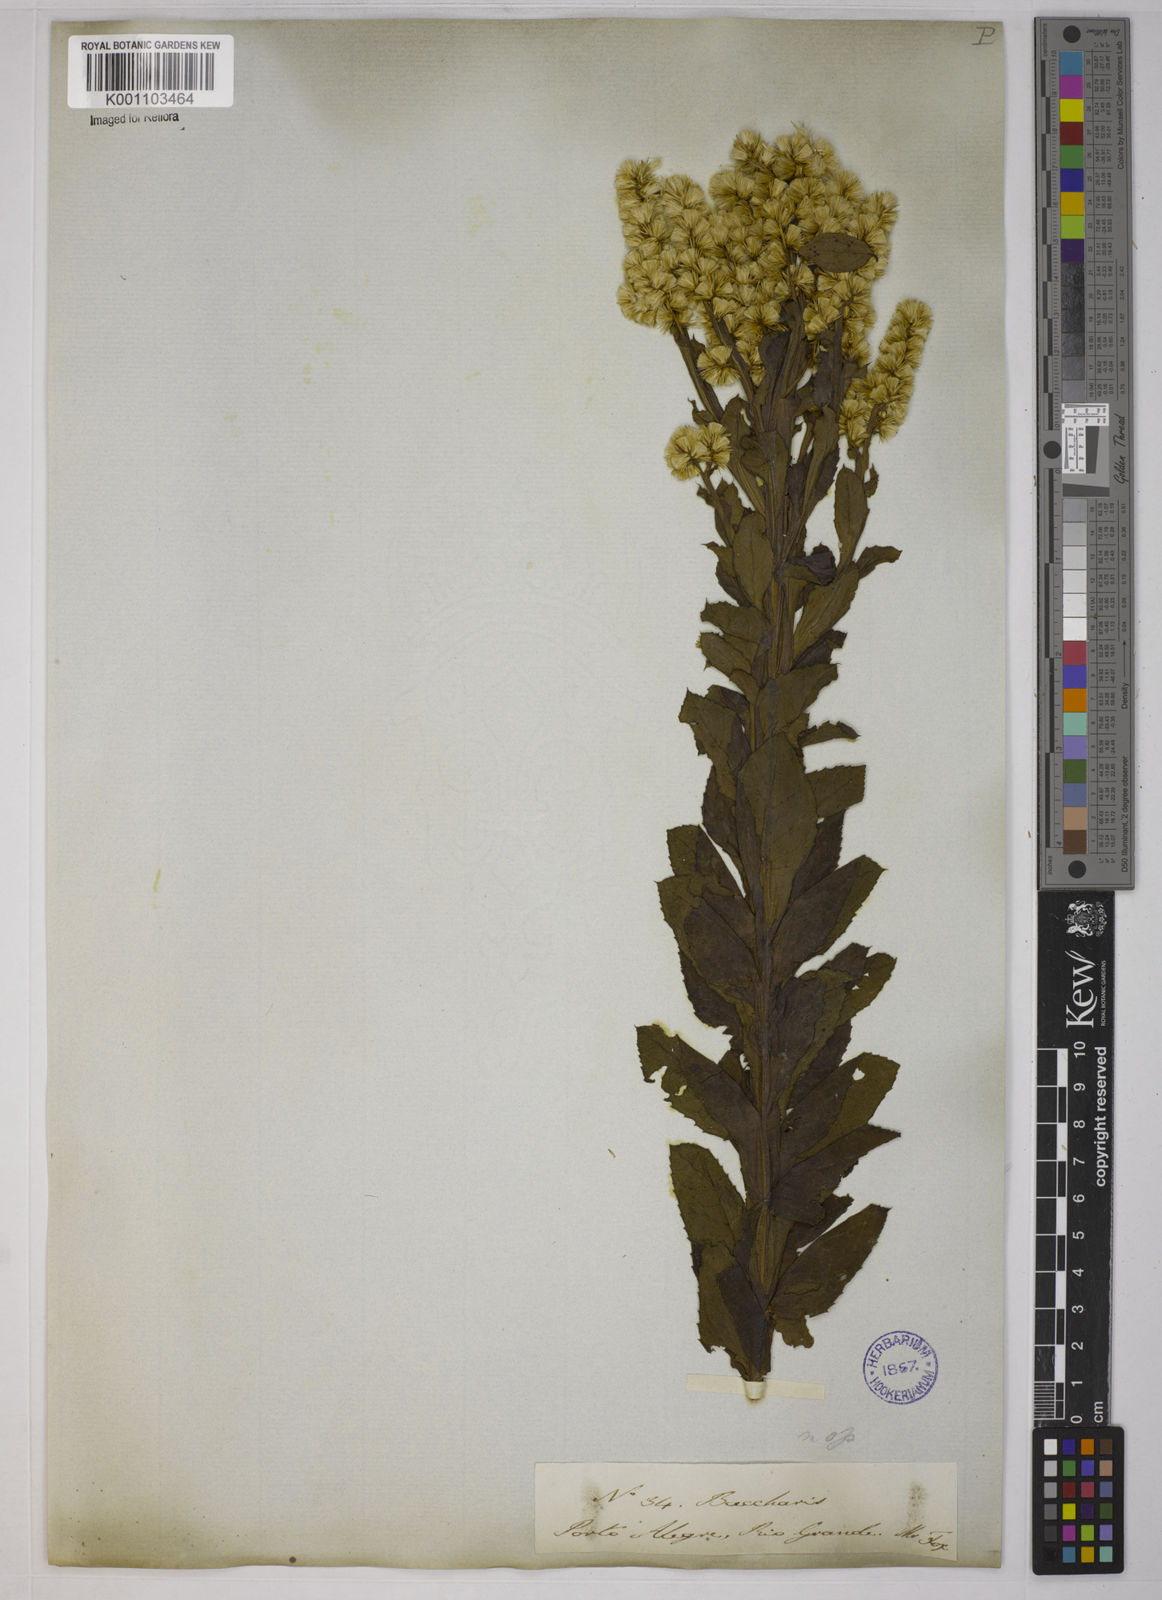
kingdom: Plantae
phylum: Tracheophyta
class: Magnoliopsida
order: Asterales
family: Asteraceae
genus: Pterocaulon
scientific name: Pterocaulon polystachyum
